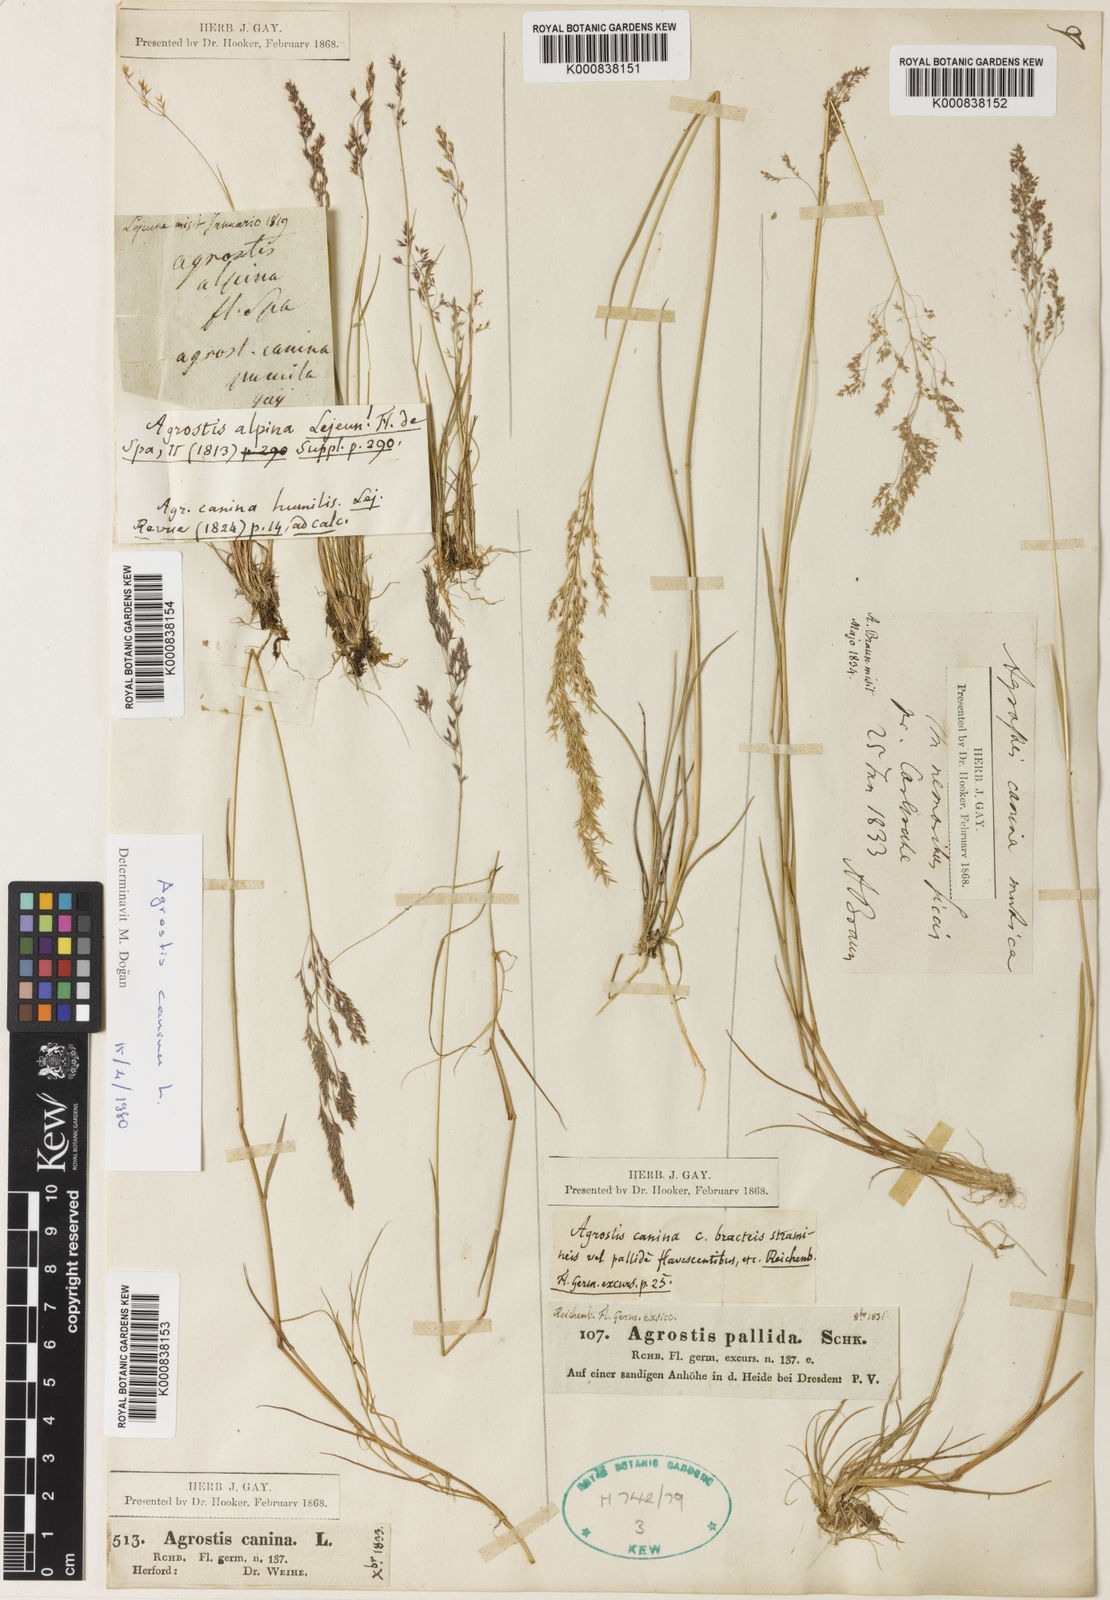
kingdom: Plantae
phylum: Tracheophyta
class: Liliopsida
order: Poales
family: Poaceae
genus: Agrostis
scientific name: Agrostis canina
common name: Velvet bent
